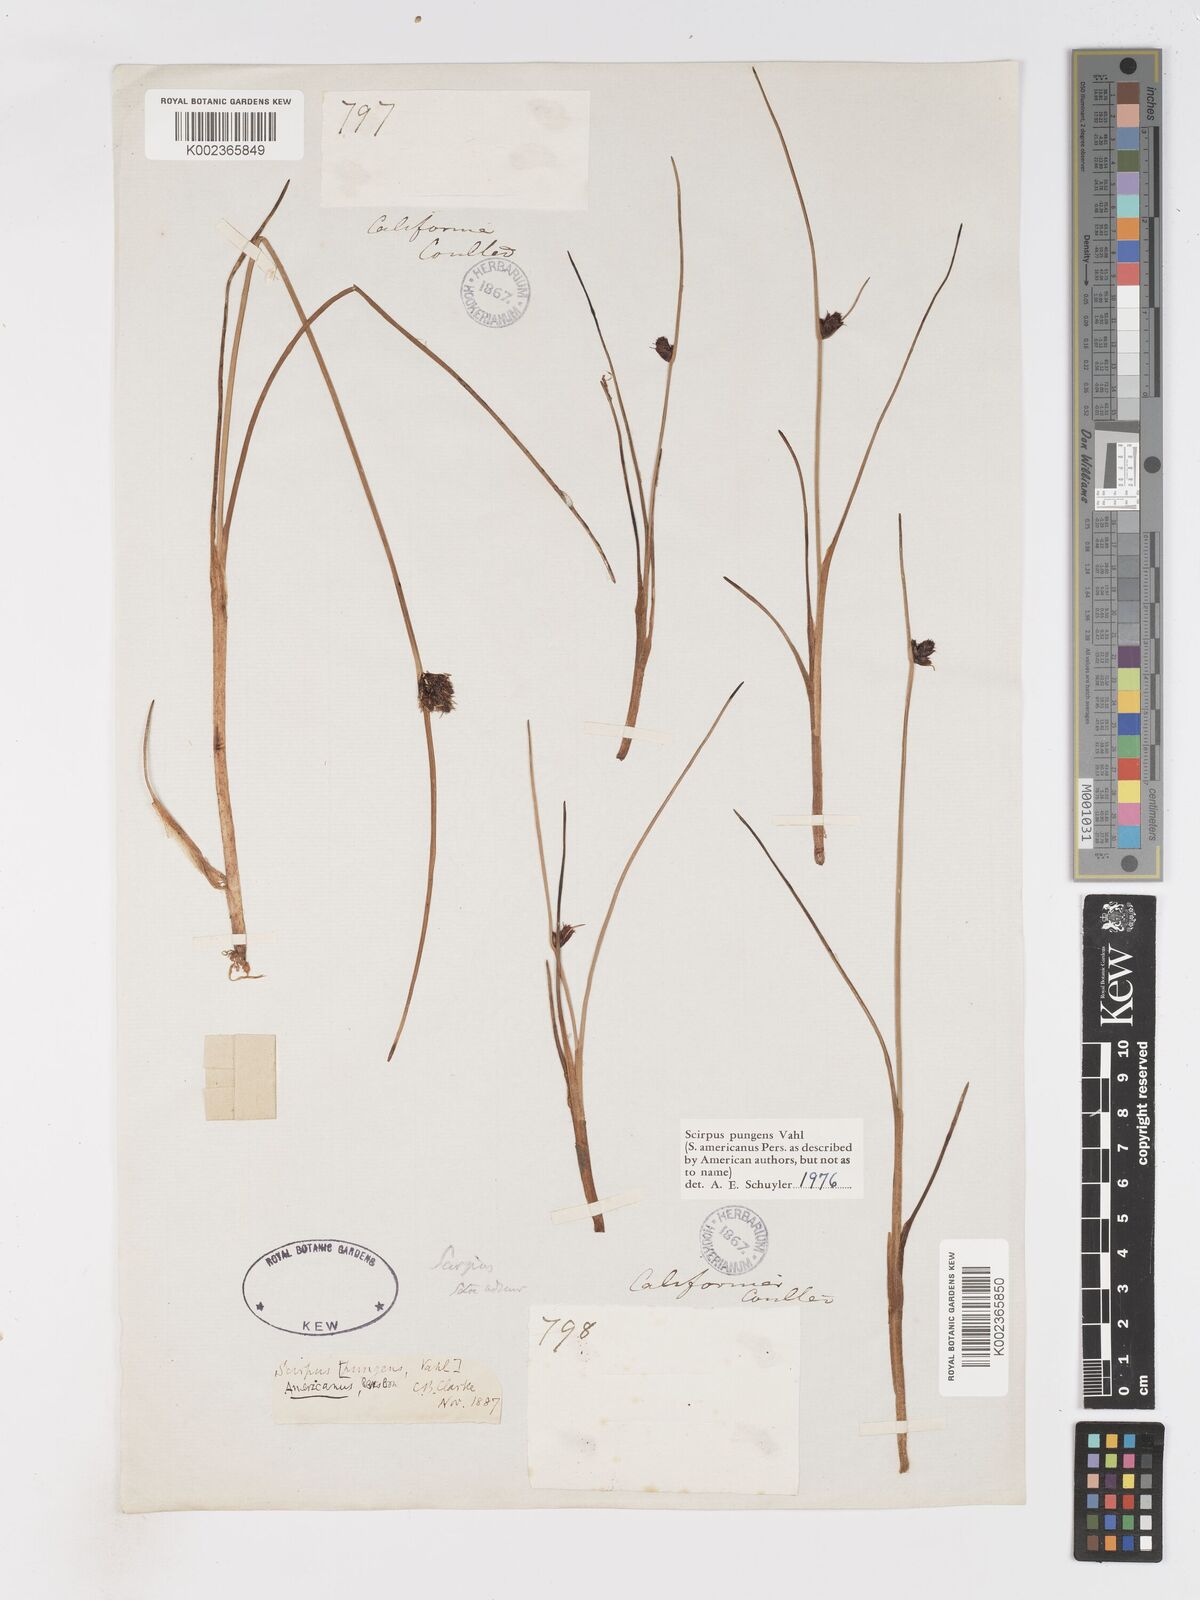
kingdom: Plantae
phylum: Tracheophyta
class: Liliopsida
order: Poales
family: Cyperaceae
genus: Schoenoplectus
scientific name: Schoenoplectus pungens
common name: Sharp club-rush
